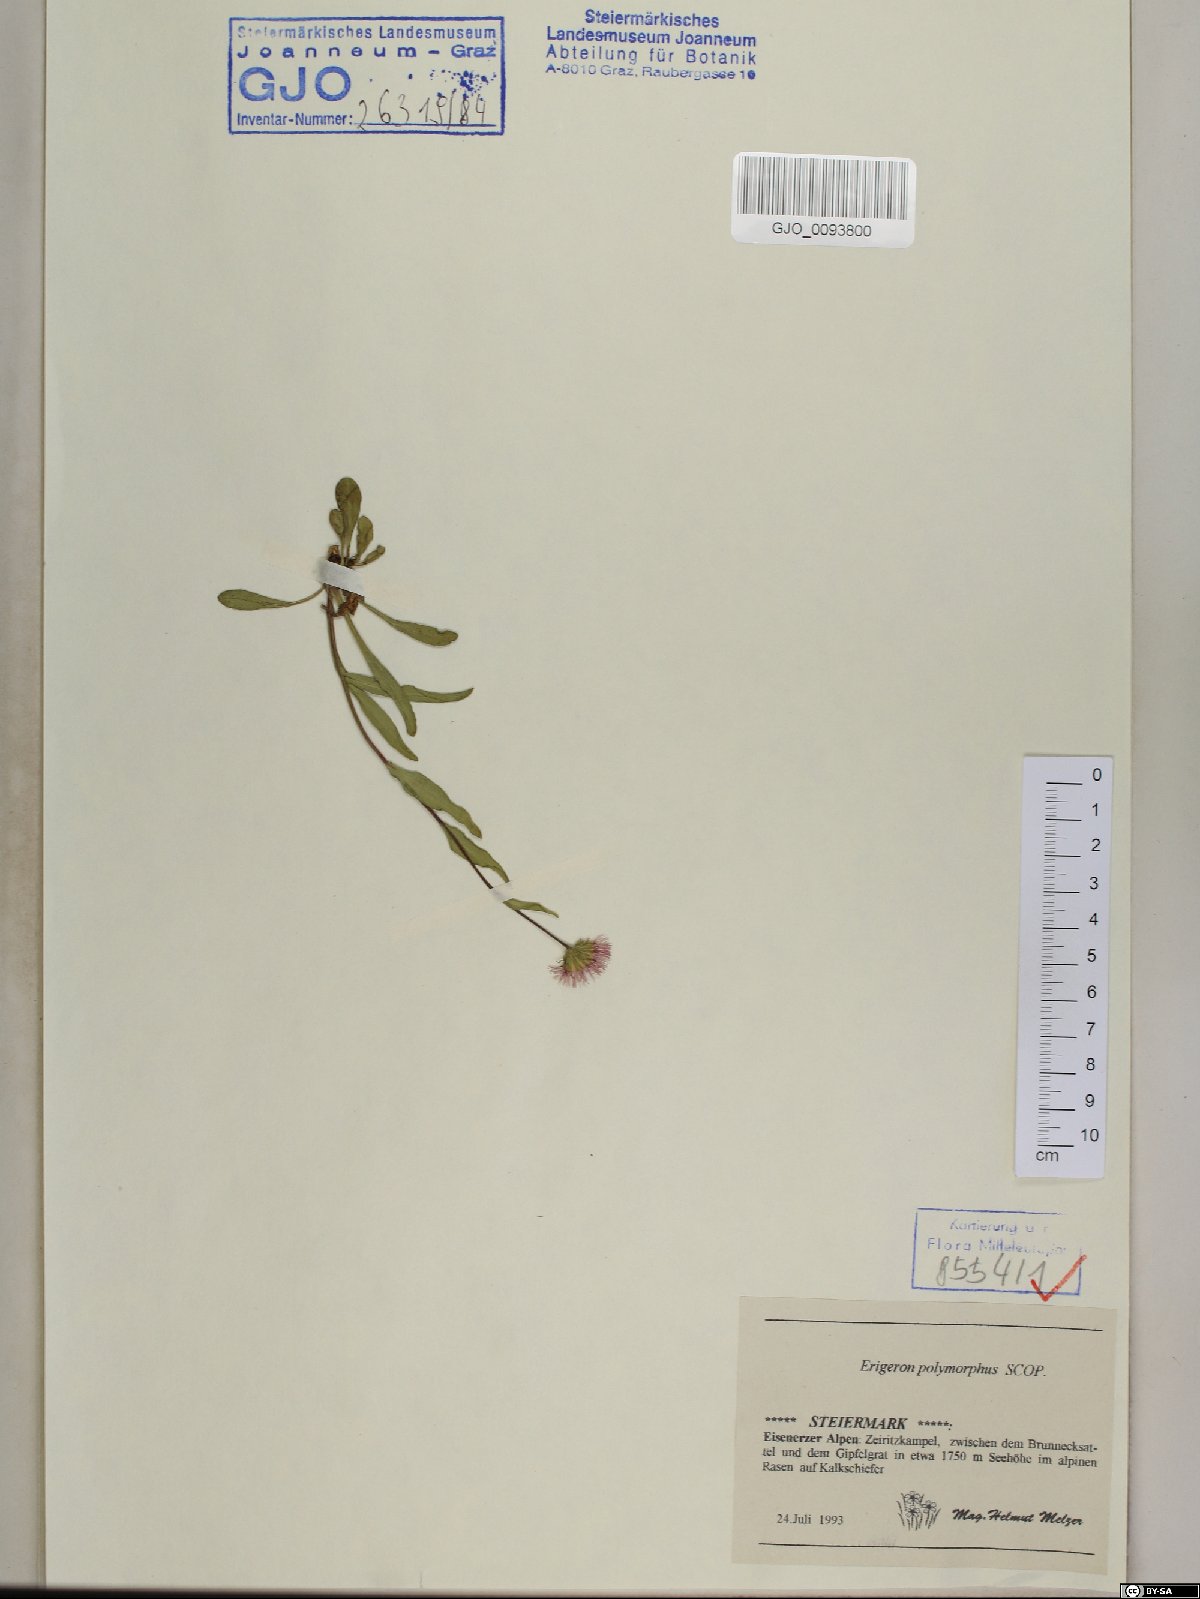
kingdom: Plantae
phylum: Tracheophyta
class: Magnoliopsida
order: Asterales
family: Asteraceae
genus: Erigeron
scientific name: Erigeron alpinus
